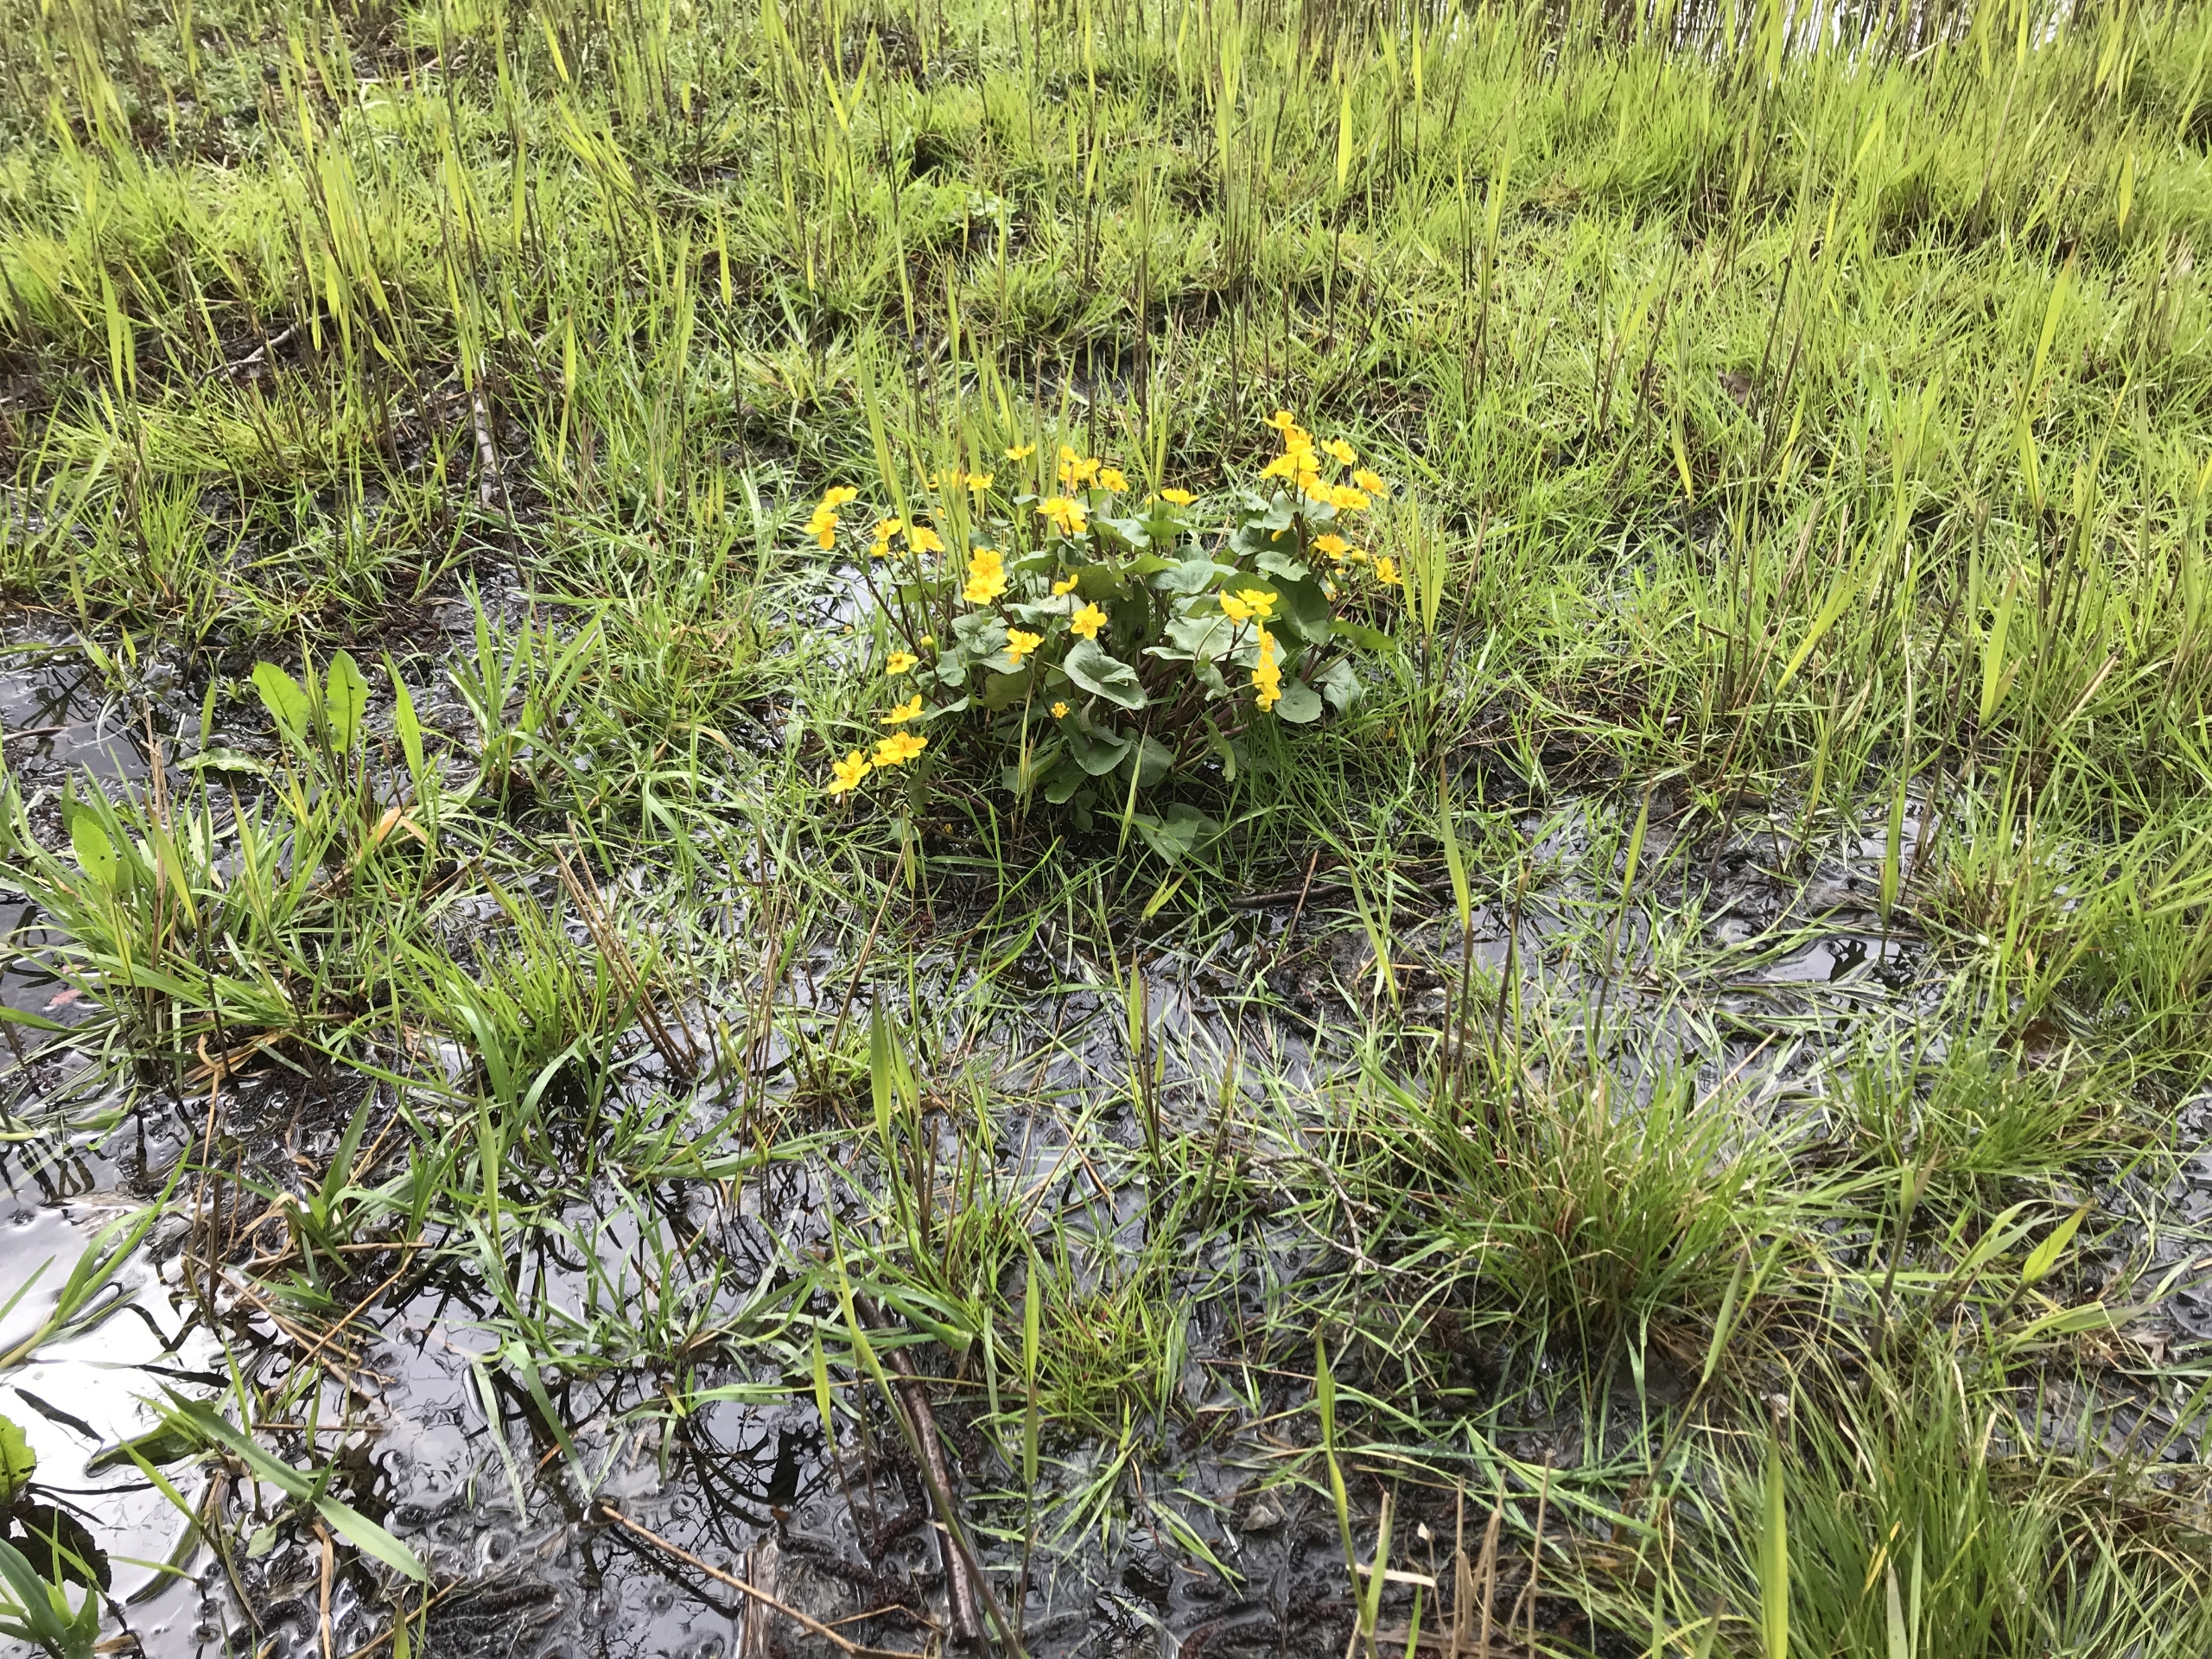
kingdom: Plantae
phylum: Tracheophyta
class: Magnoliopsida
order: Ranunculales
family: Ranunculaceae
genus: Caltha
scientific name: Caltha palustris
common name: Eng-kabbeleje
